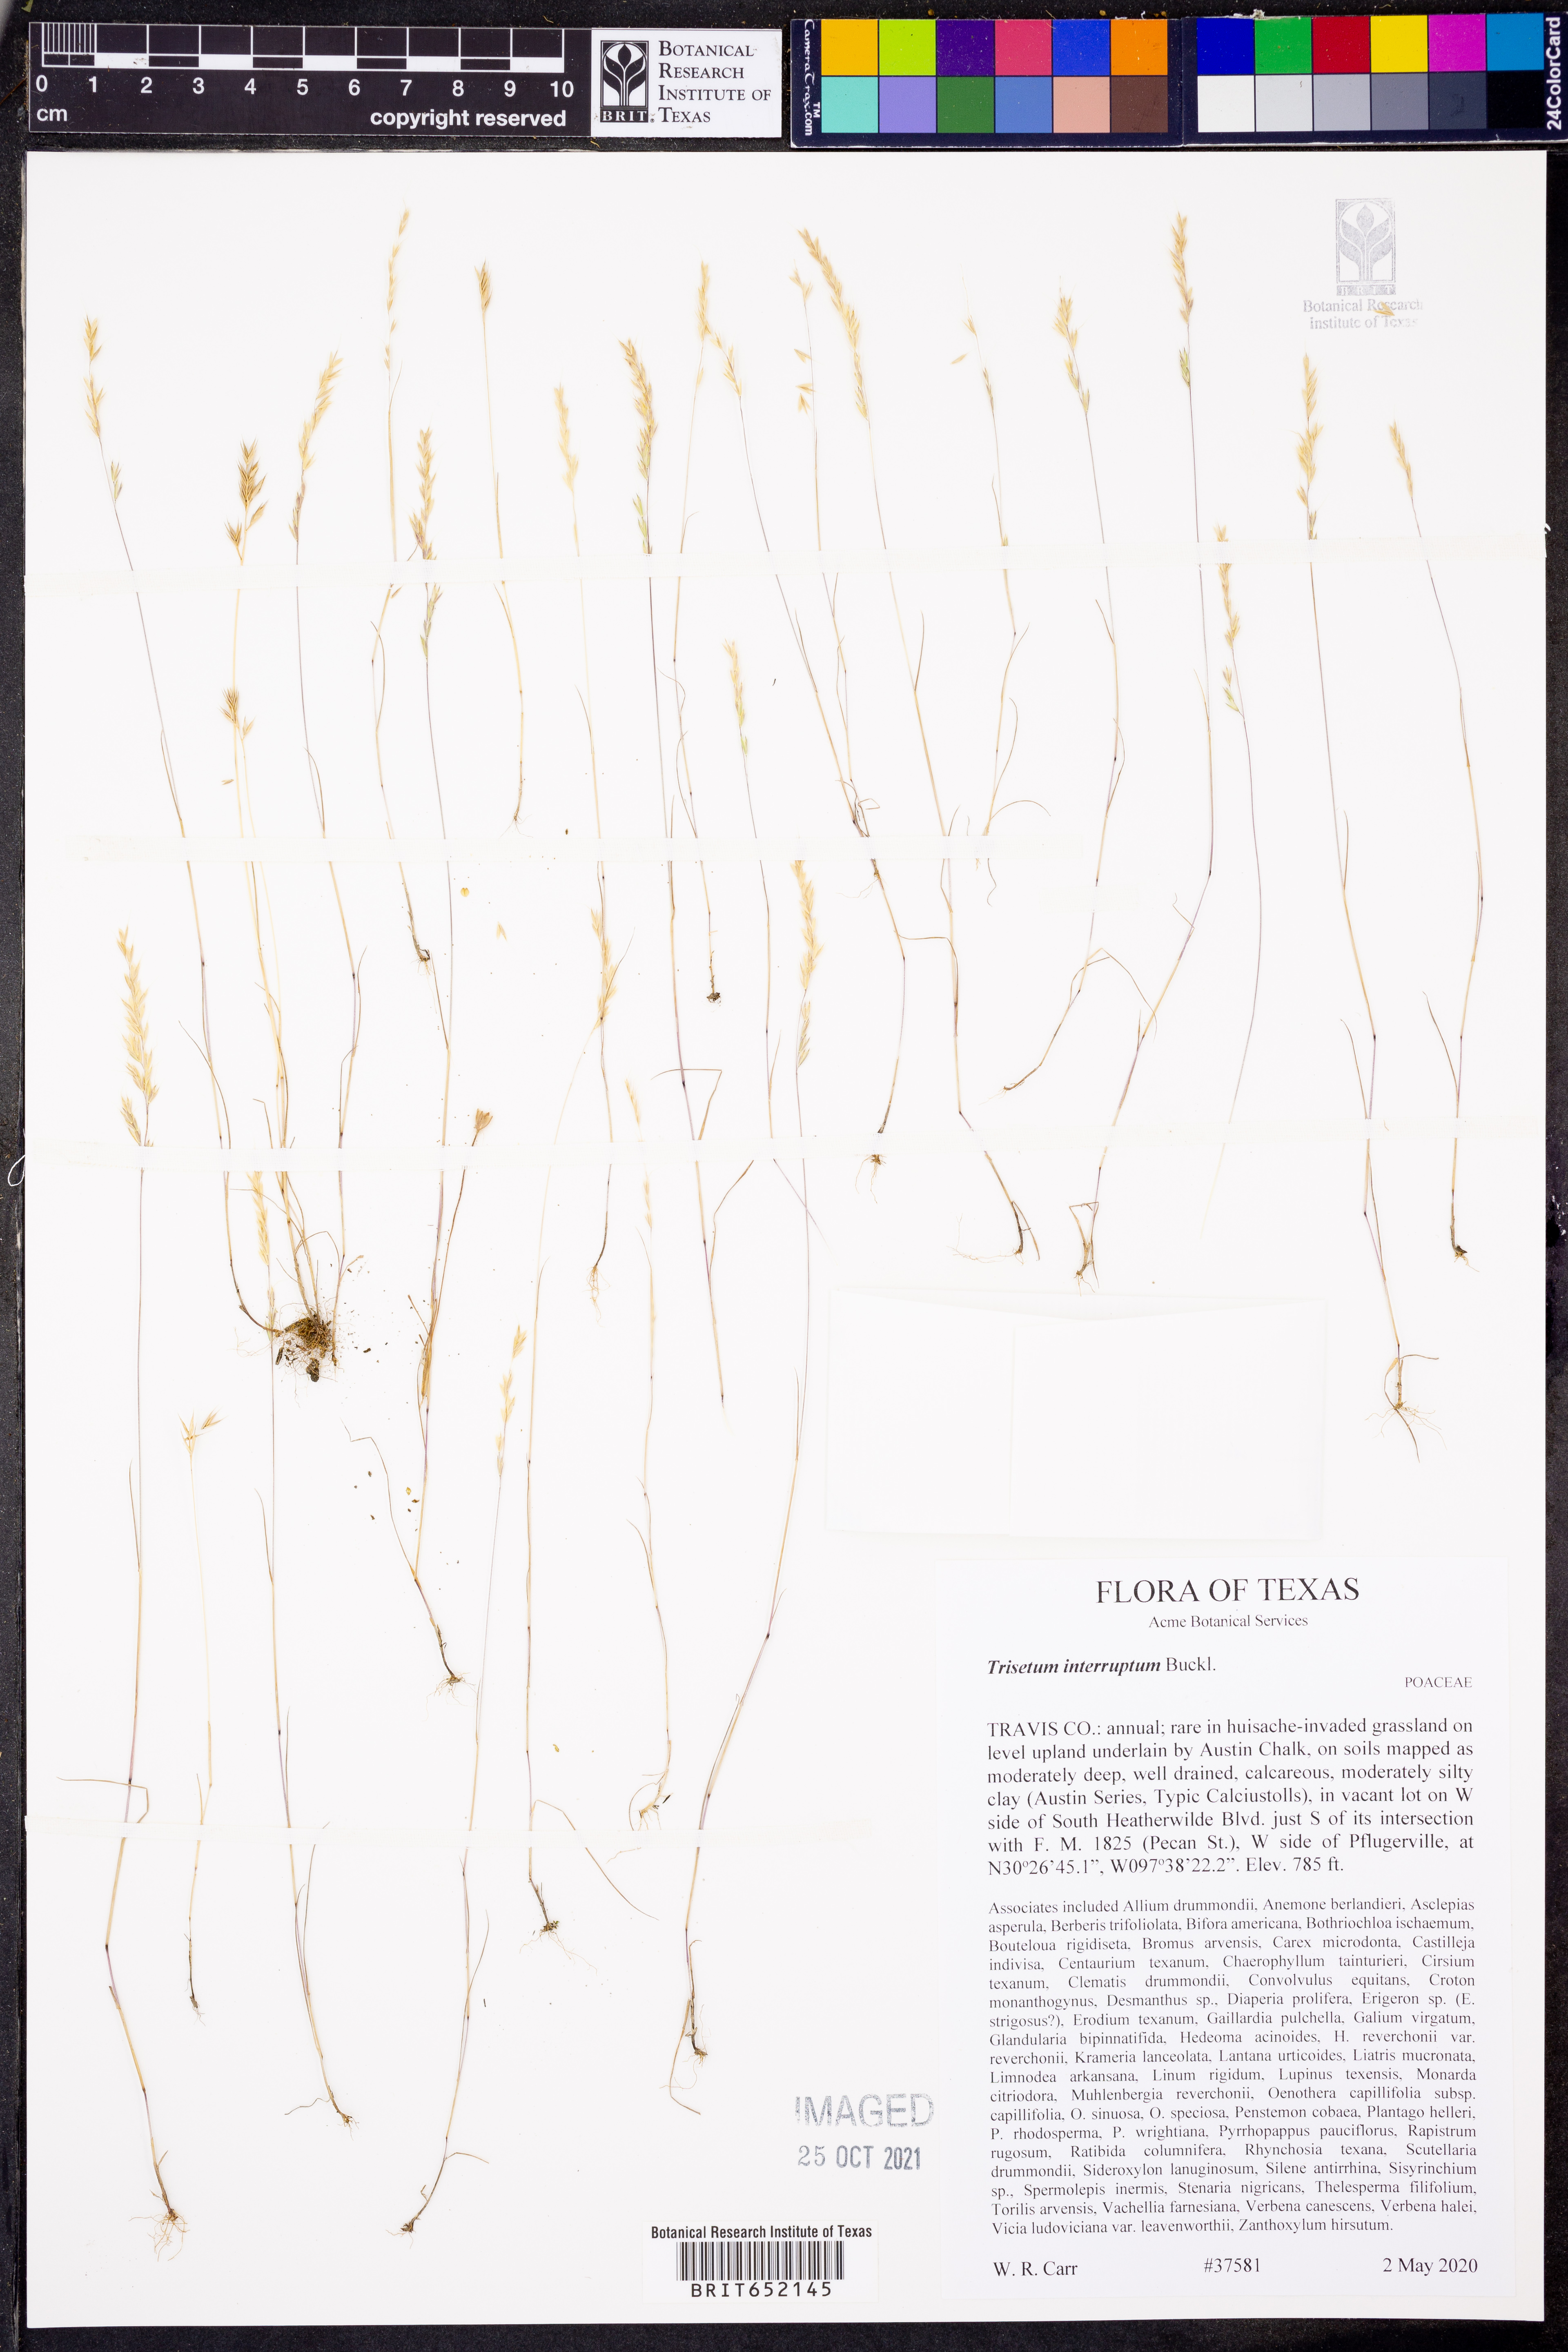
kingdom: Plantae
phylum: Tracheophyta
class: Liliopsida
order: Poales
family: Poaceae
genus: Sphenopholis
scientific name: Sphenopholis interrupta
